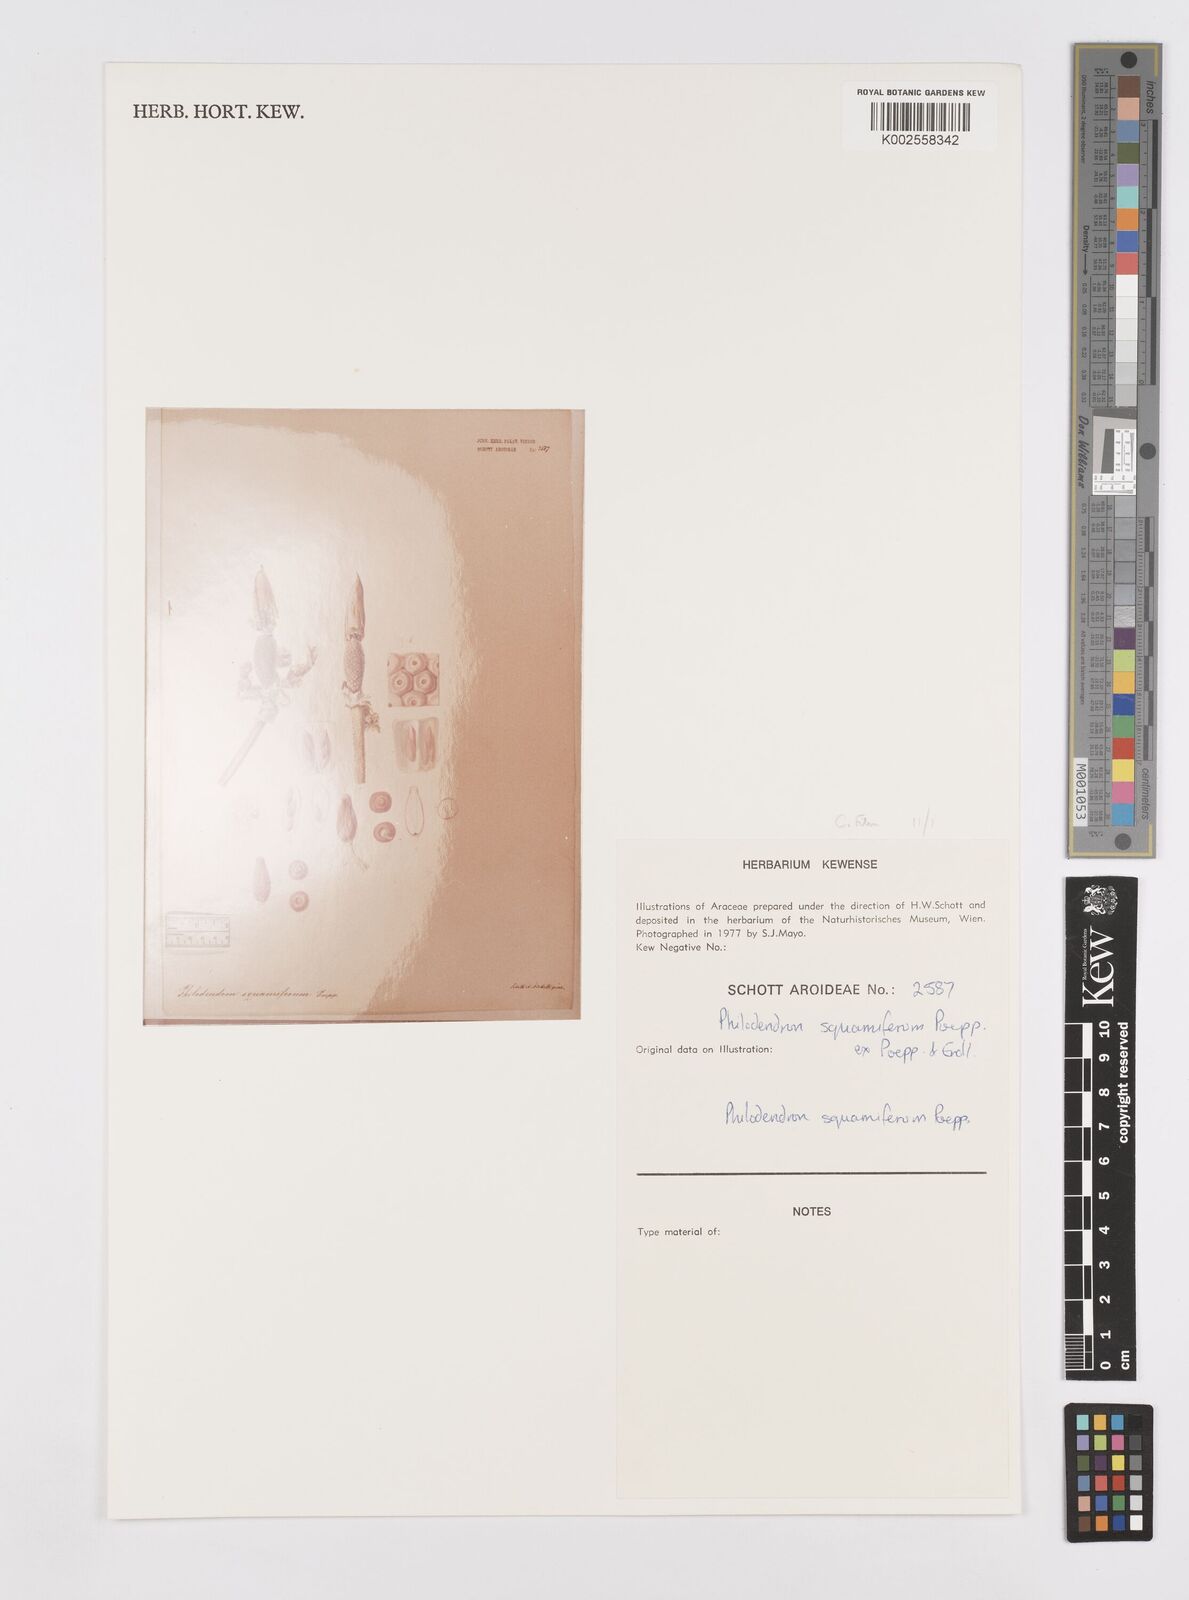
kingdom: Plantae
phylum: Tracheophyta
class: Liliopsida
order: Alismatales
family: Araceae
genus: Philodendron
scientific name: Philodendron squamiferum
